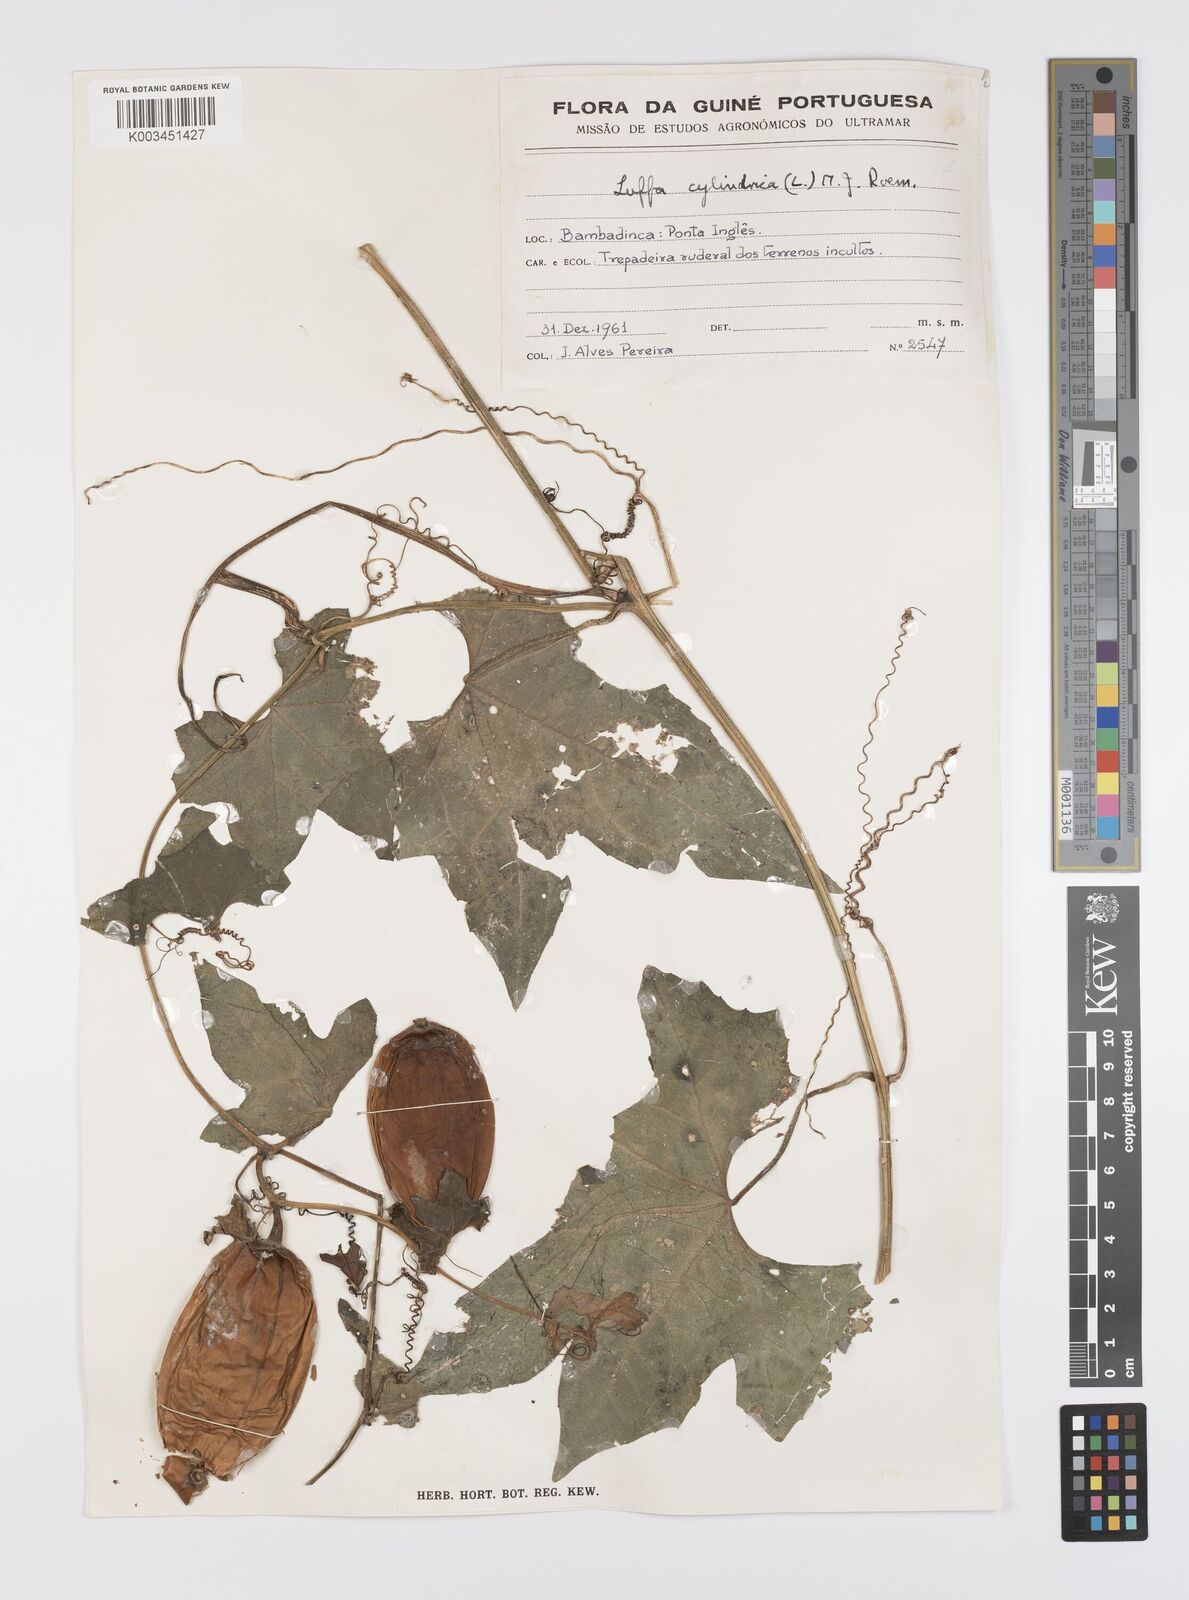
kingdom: Plantae
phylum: Tracheophyta
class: Magnoliopsida
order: Cucurbitales
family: Cucurbitaceae
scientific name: Cucurbitaceae
